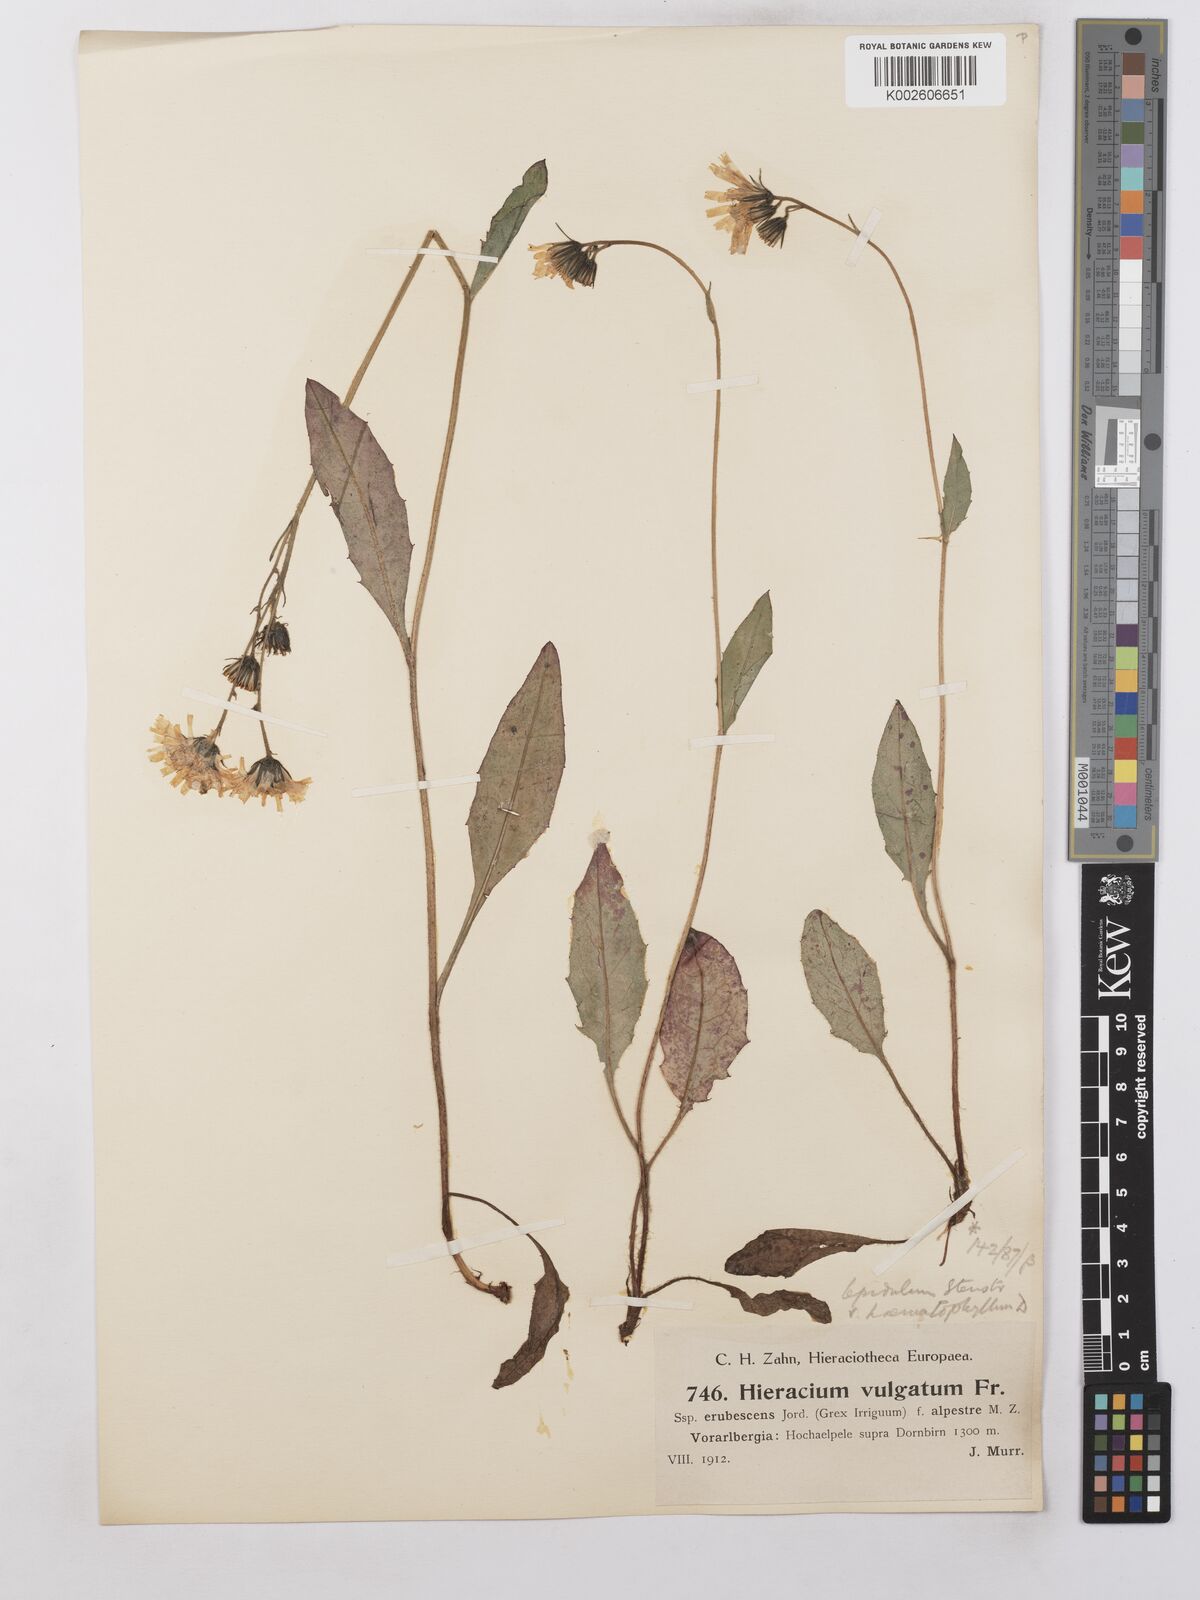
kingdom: Plantae
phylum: Tracheophyta
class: Magnoliopsida
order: Asterales
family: Asteraceae
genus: Hieracium
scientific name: Hieracium lepidulum
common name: Irregular-toothed hawkweed
